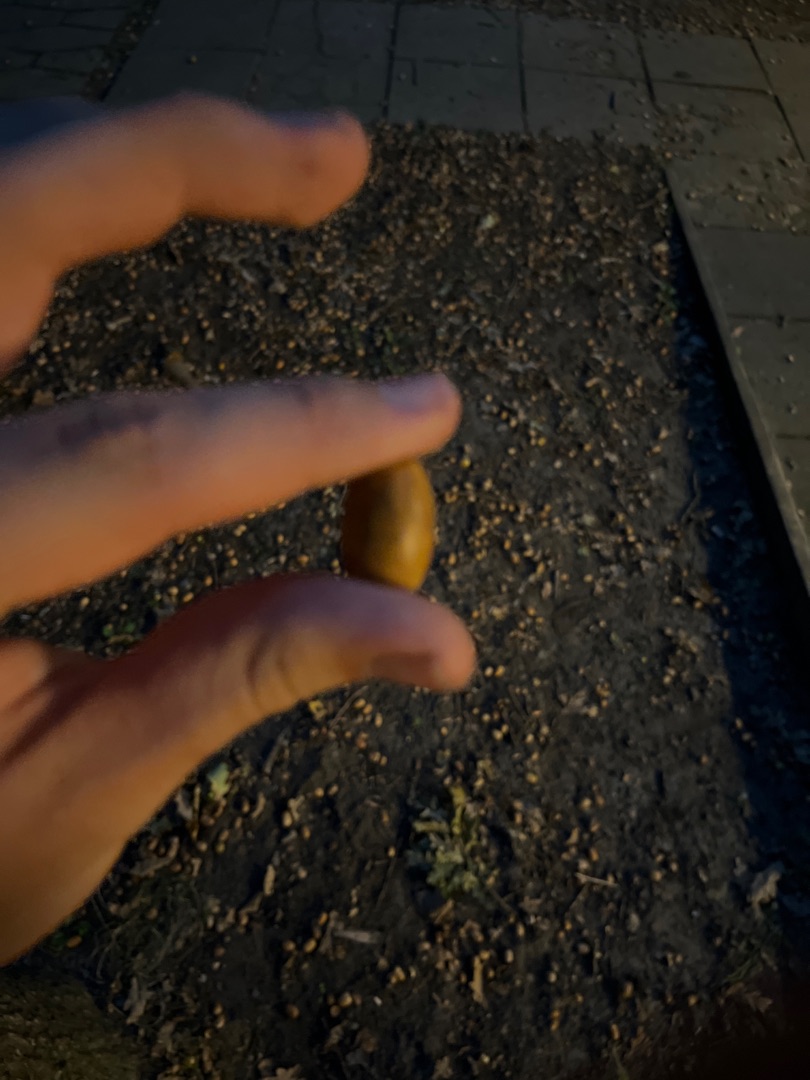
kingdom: Plantae
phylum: Tracheophyta
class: Magnoliopsida
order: Fagales
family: Fagaceae
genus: Quercus
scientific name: Quercus
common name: Egeslægten
